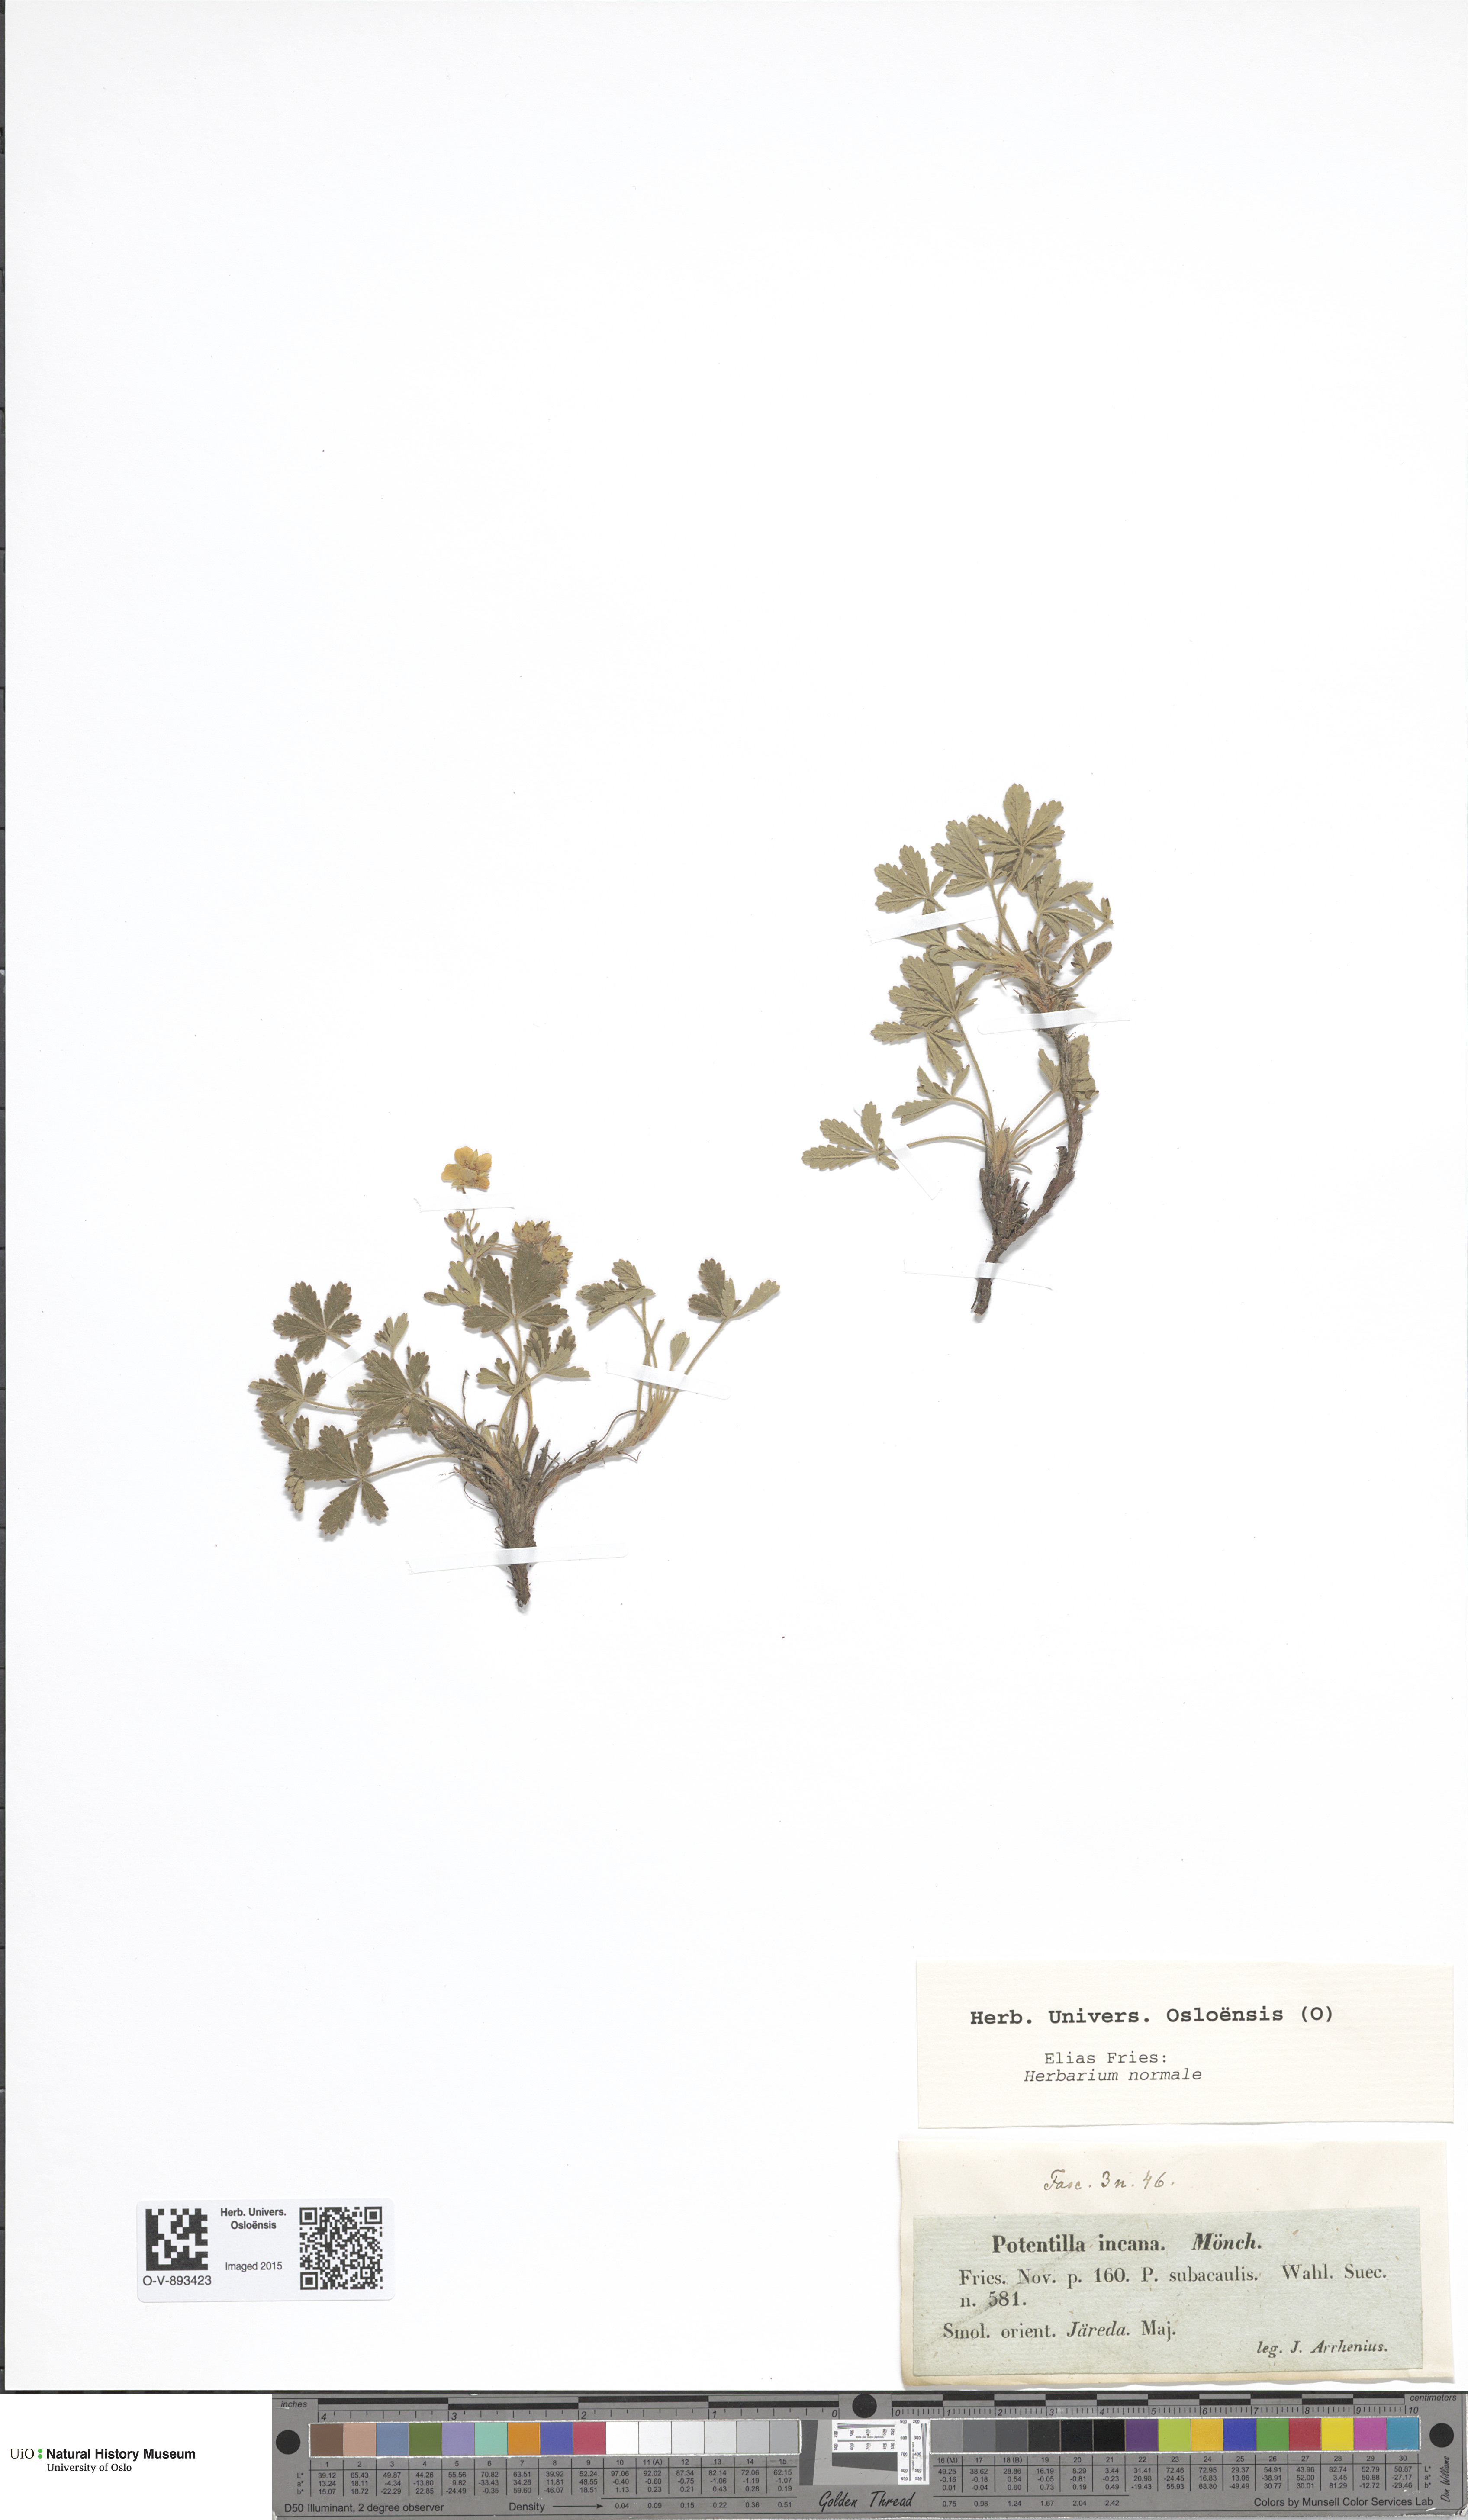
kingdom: Plantae
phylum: Tracheophyta
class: Magnoliopsida
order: Rosales
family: Rosaceae
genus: Potentilla
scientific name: Potentilla cinerea
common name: Ashy cinquefoil
